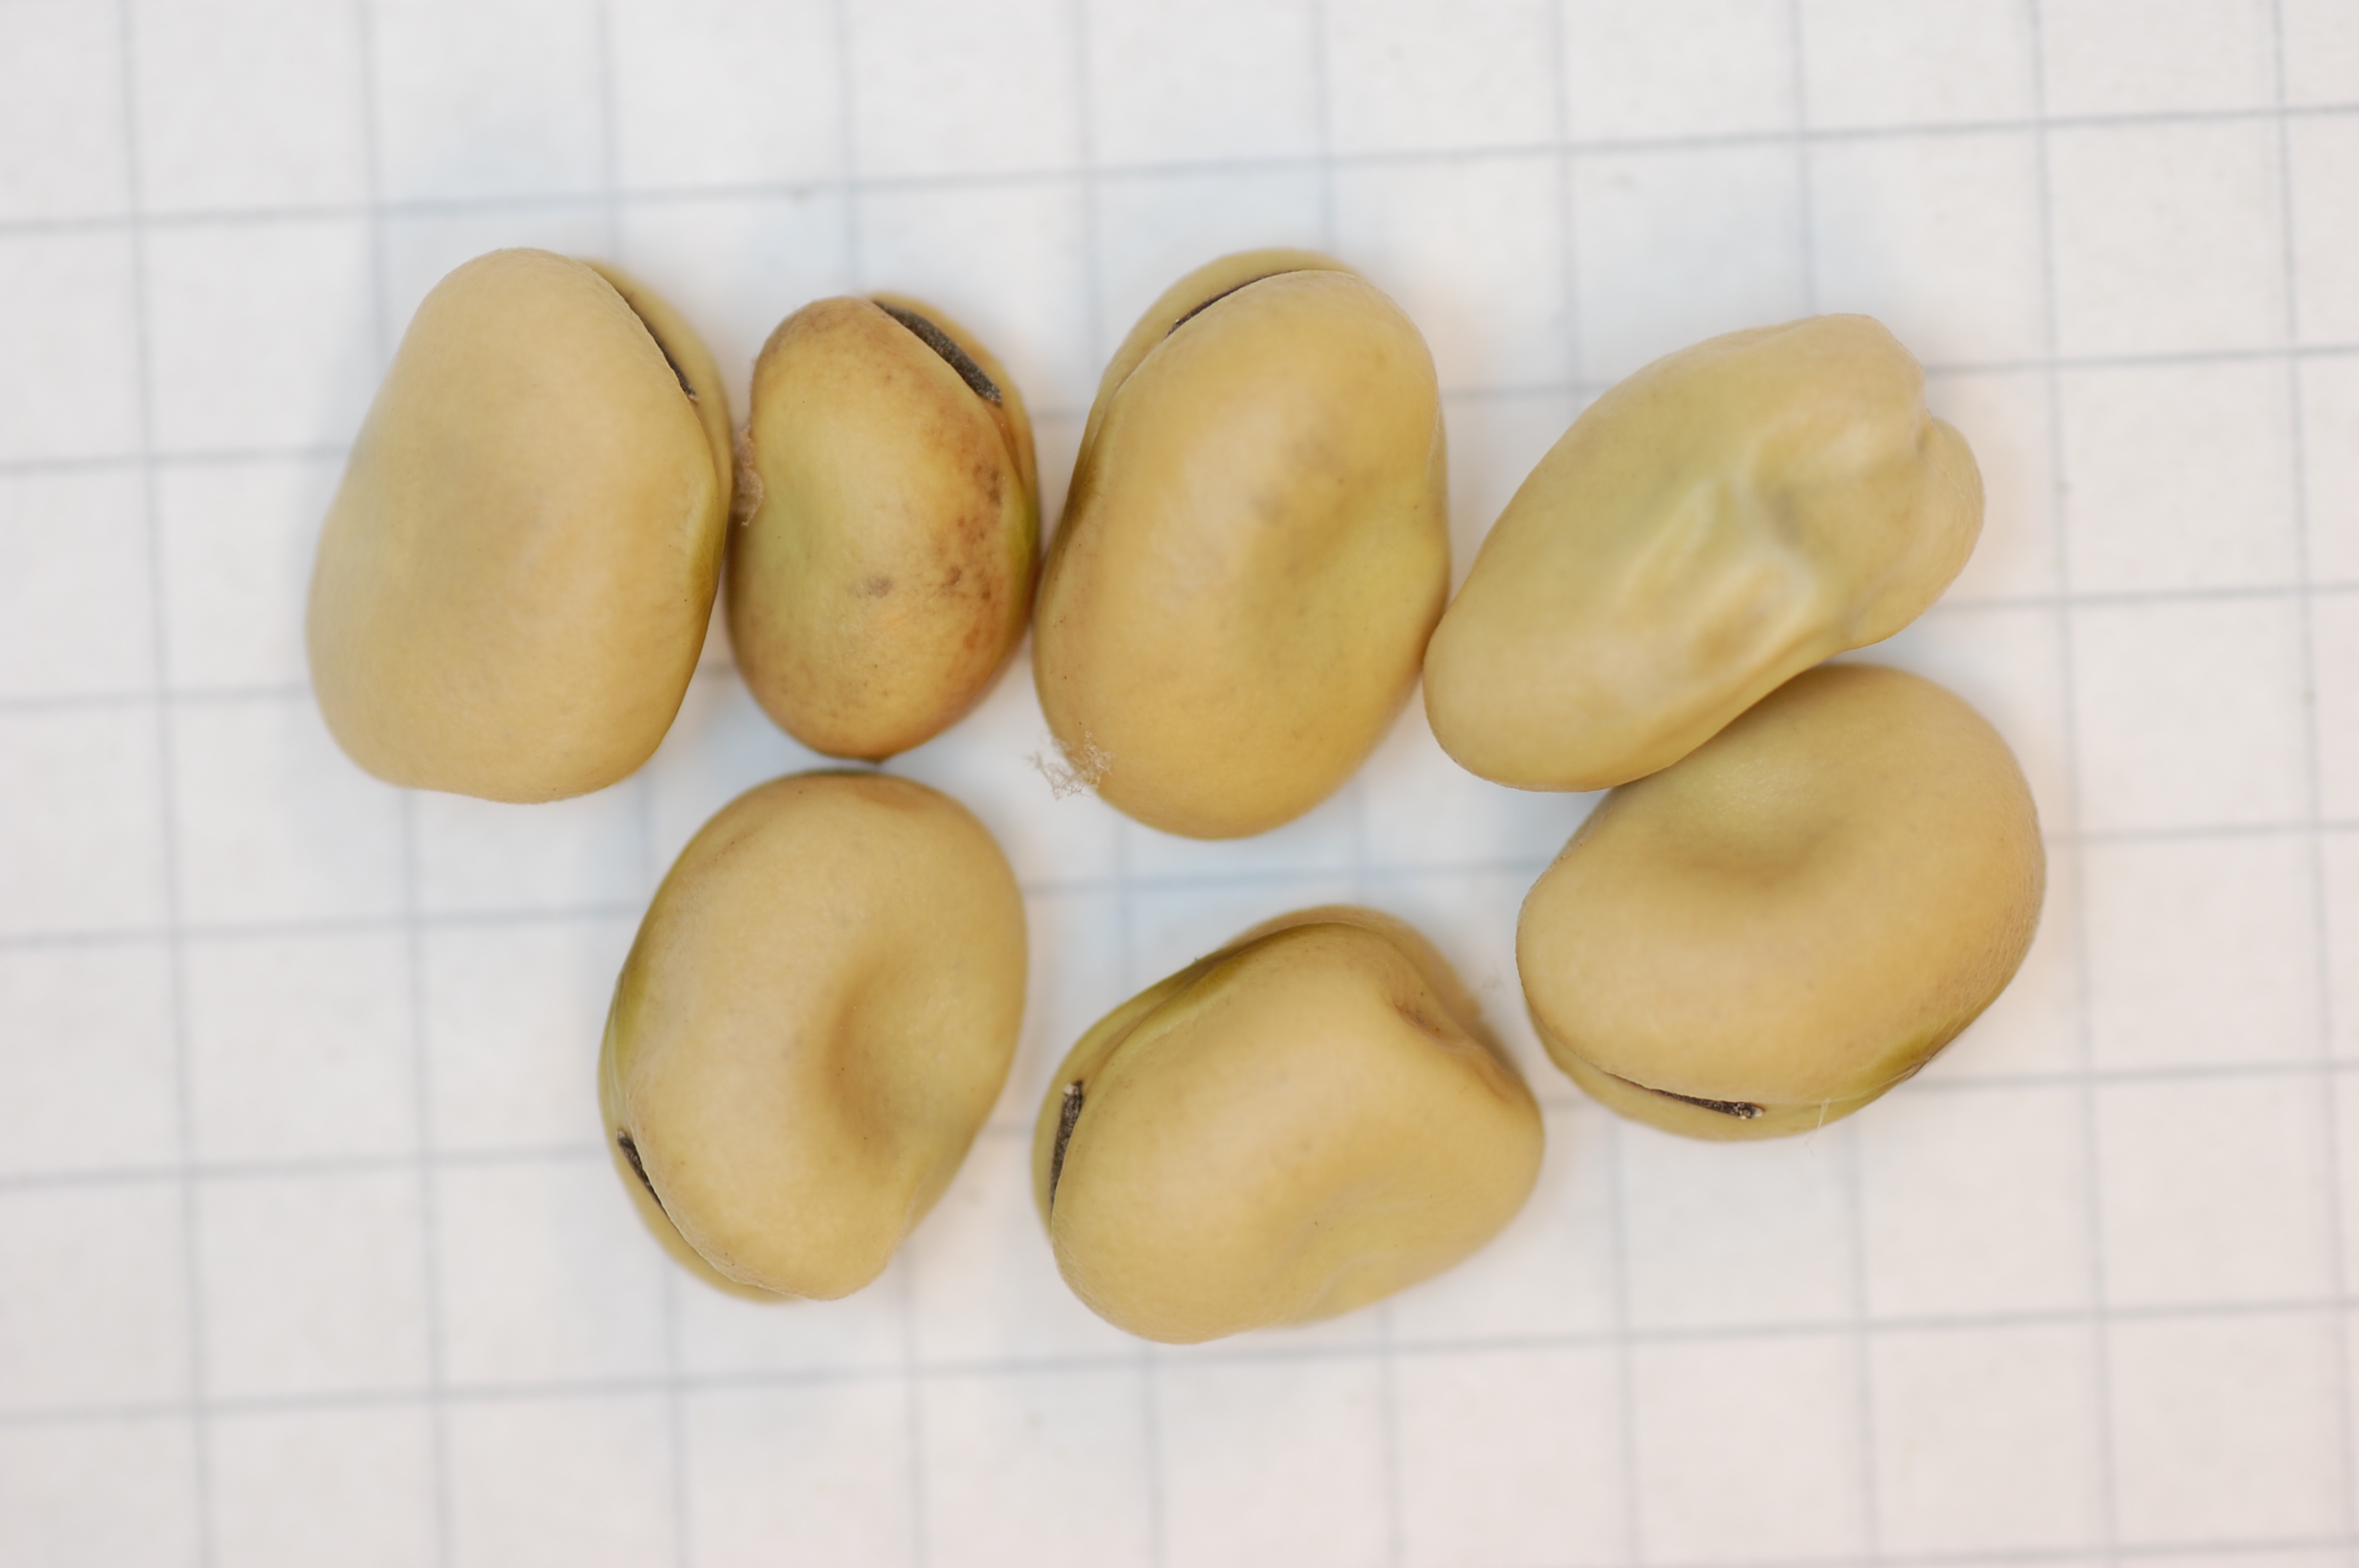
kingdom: Plantae
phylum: Tracheophyta
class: Magnoliopsida
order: Fabales
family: Fabaceae
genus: Vicia
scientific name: Vicia faba
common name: Broad bean
